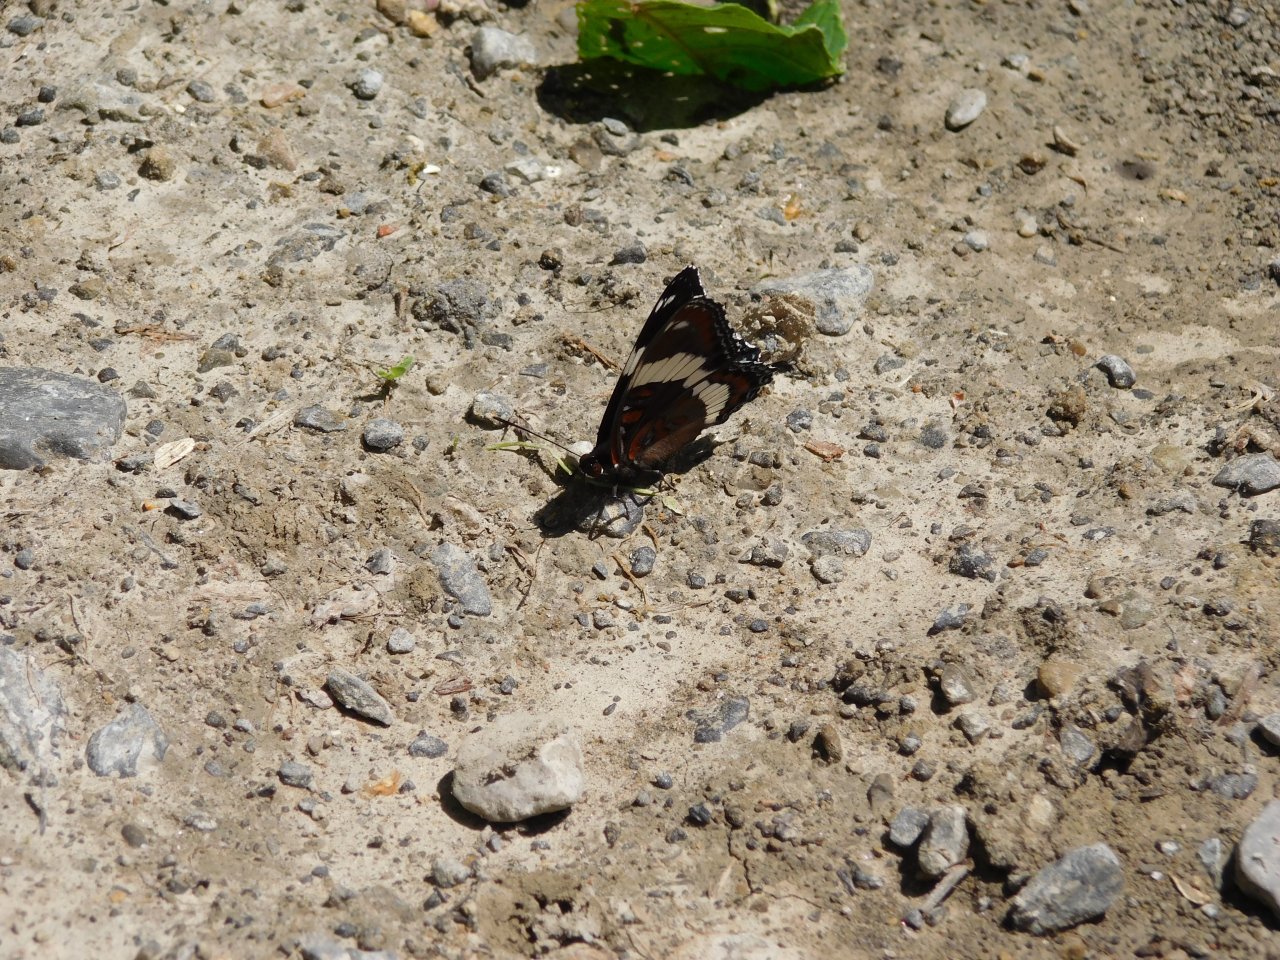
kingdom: Animalia
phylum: Arthropoda
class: Insecta
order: Lepidoptera
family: Nymphalidae
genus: Limenitis
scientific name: Limenitis arthemis
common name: Red-spotted Admiral
